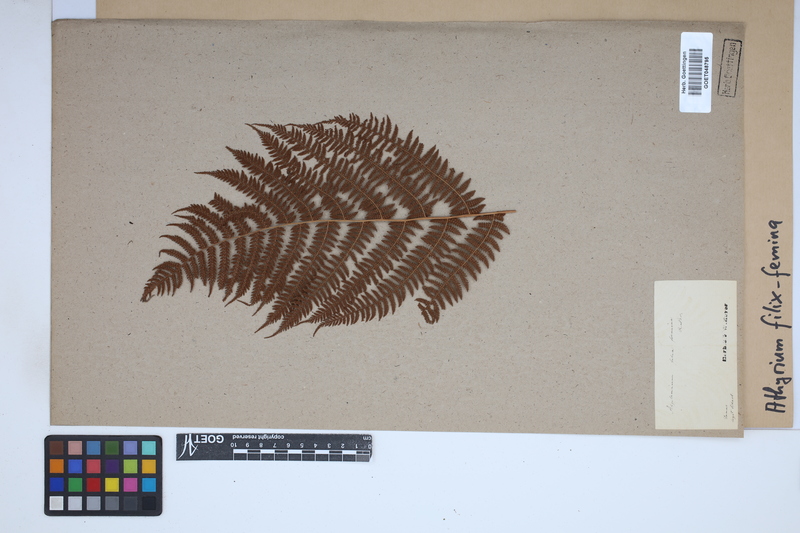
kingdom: Plantae
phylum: Tracheophyta
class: Polypodiopsida
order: Polypodiales
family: Athyriaceae
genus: Athyrium
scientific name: Athyrium filix-femina
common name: Lady fern
